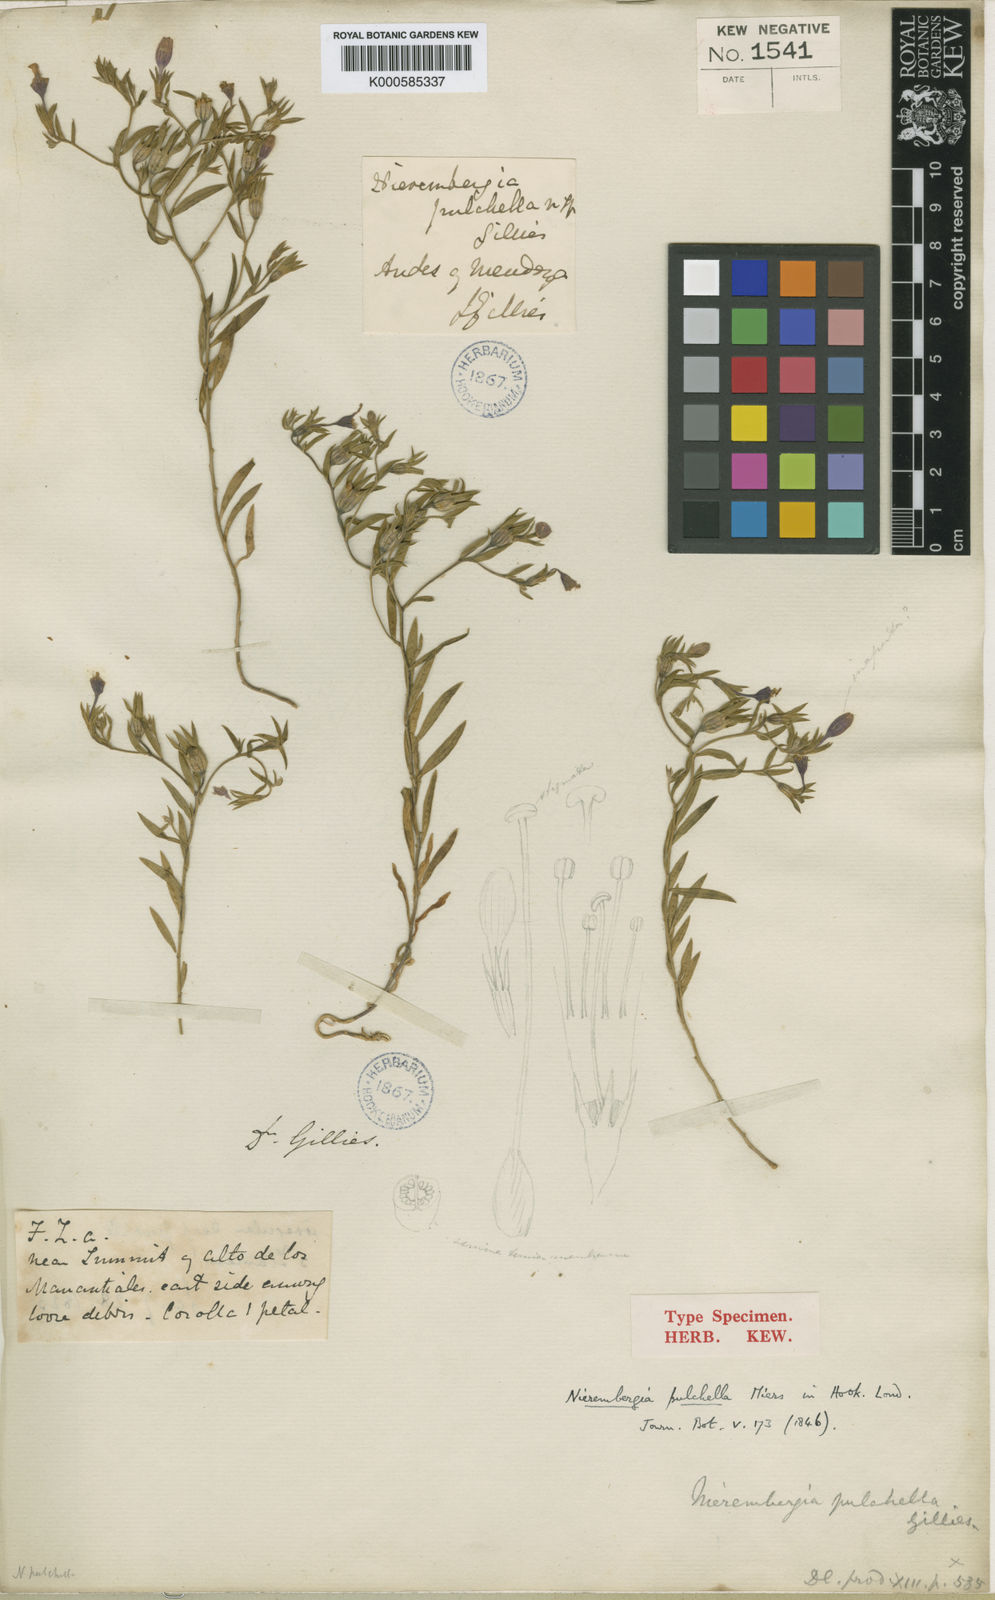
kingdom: Plantae
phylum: Tracheophyta
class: Magnoliopsida
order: Solanales
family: Solanaceae
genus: Nierembergia
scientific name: Nierembergia pulchella
